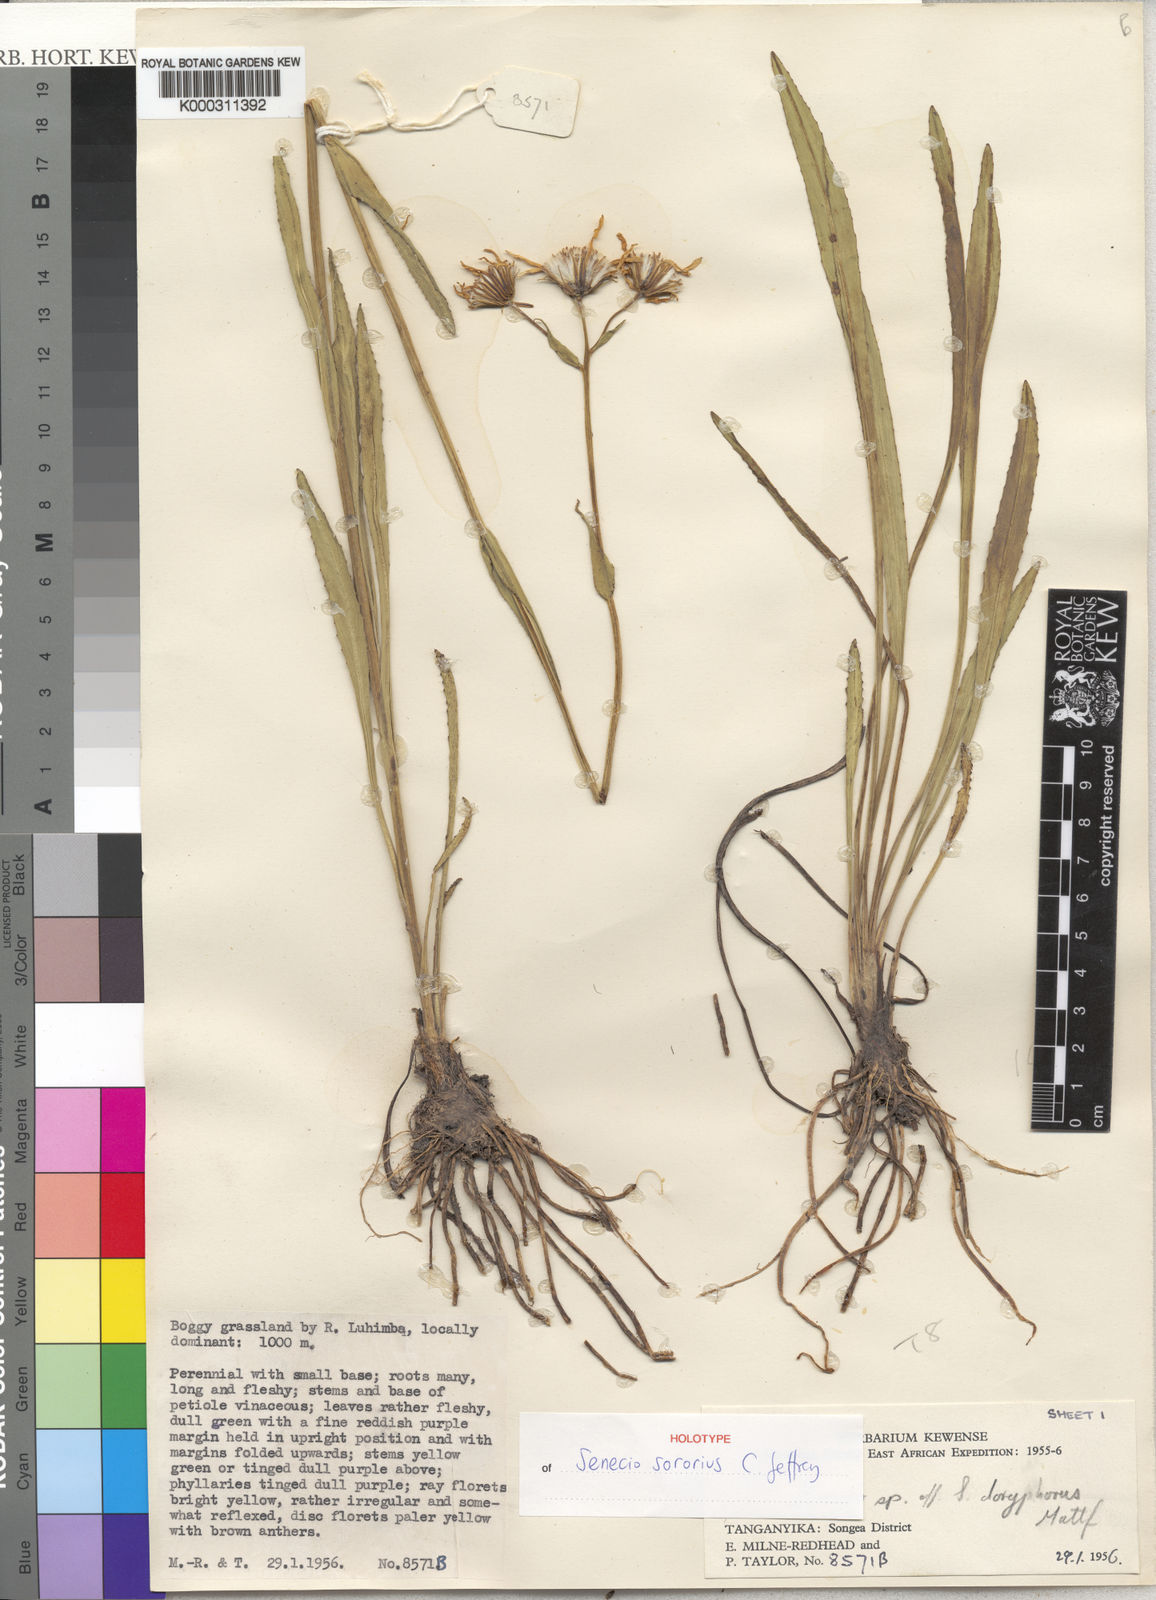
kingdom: Plantae
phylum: Tracheophyta
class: Magnoliopsida
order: Asterales
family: Asteraceae
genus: Senecio
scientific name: Senecio sororius
